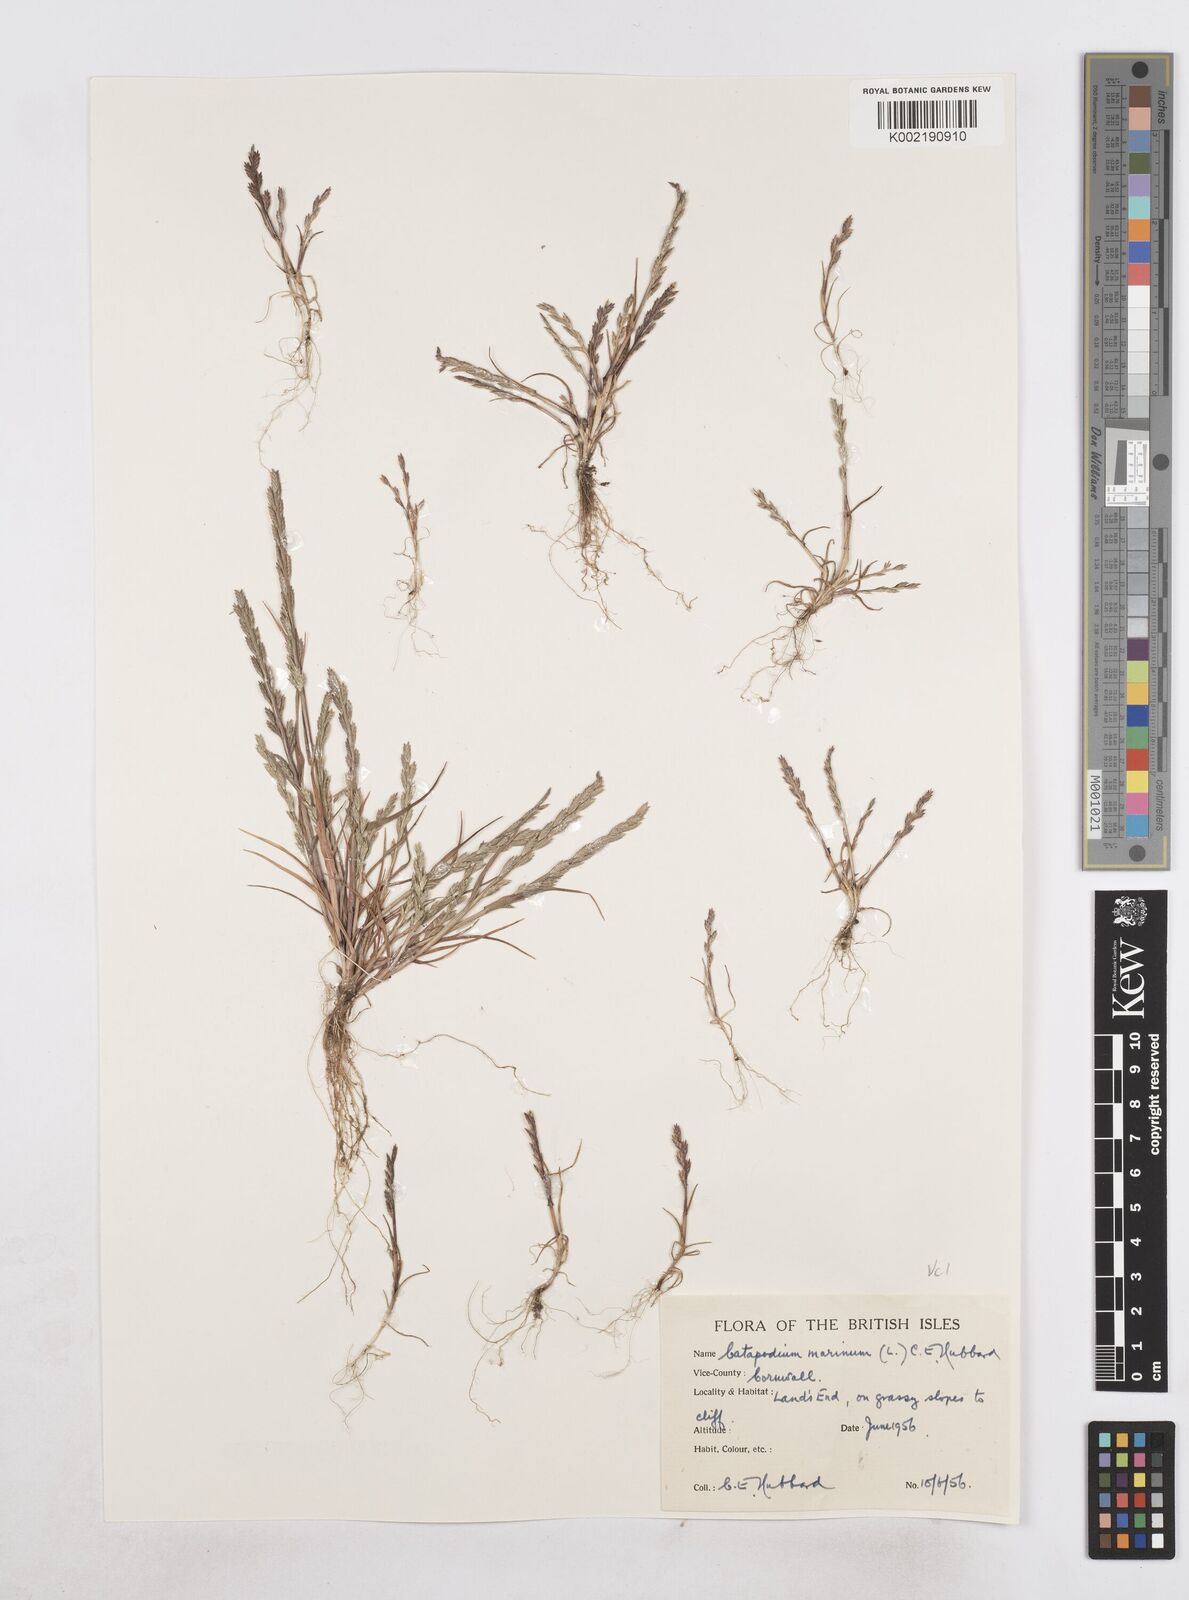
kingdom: Plantae
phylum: Tracheophyta
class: Liliopsida
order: Poales
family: Poaceae
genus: Catapodium
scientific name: Catapodium marinum
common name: Sea fern-grass
